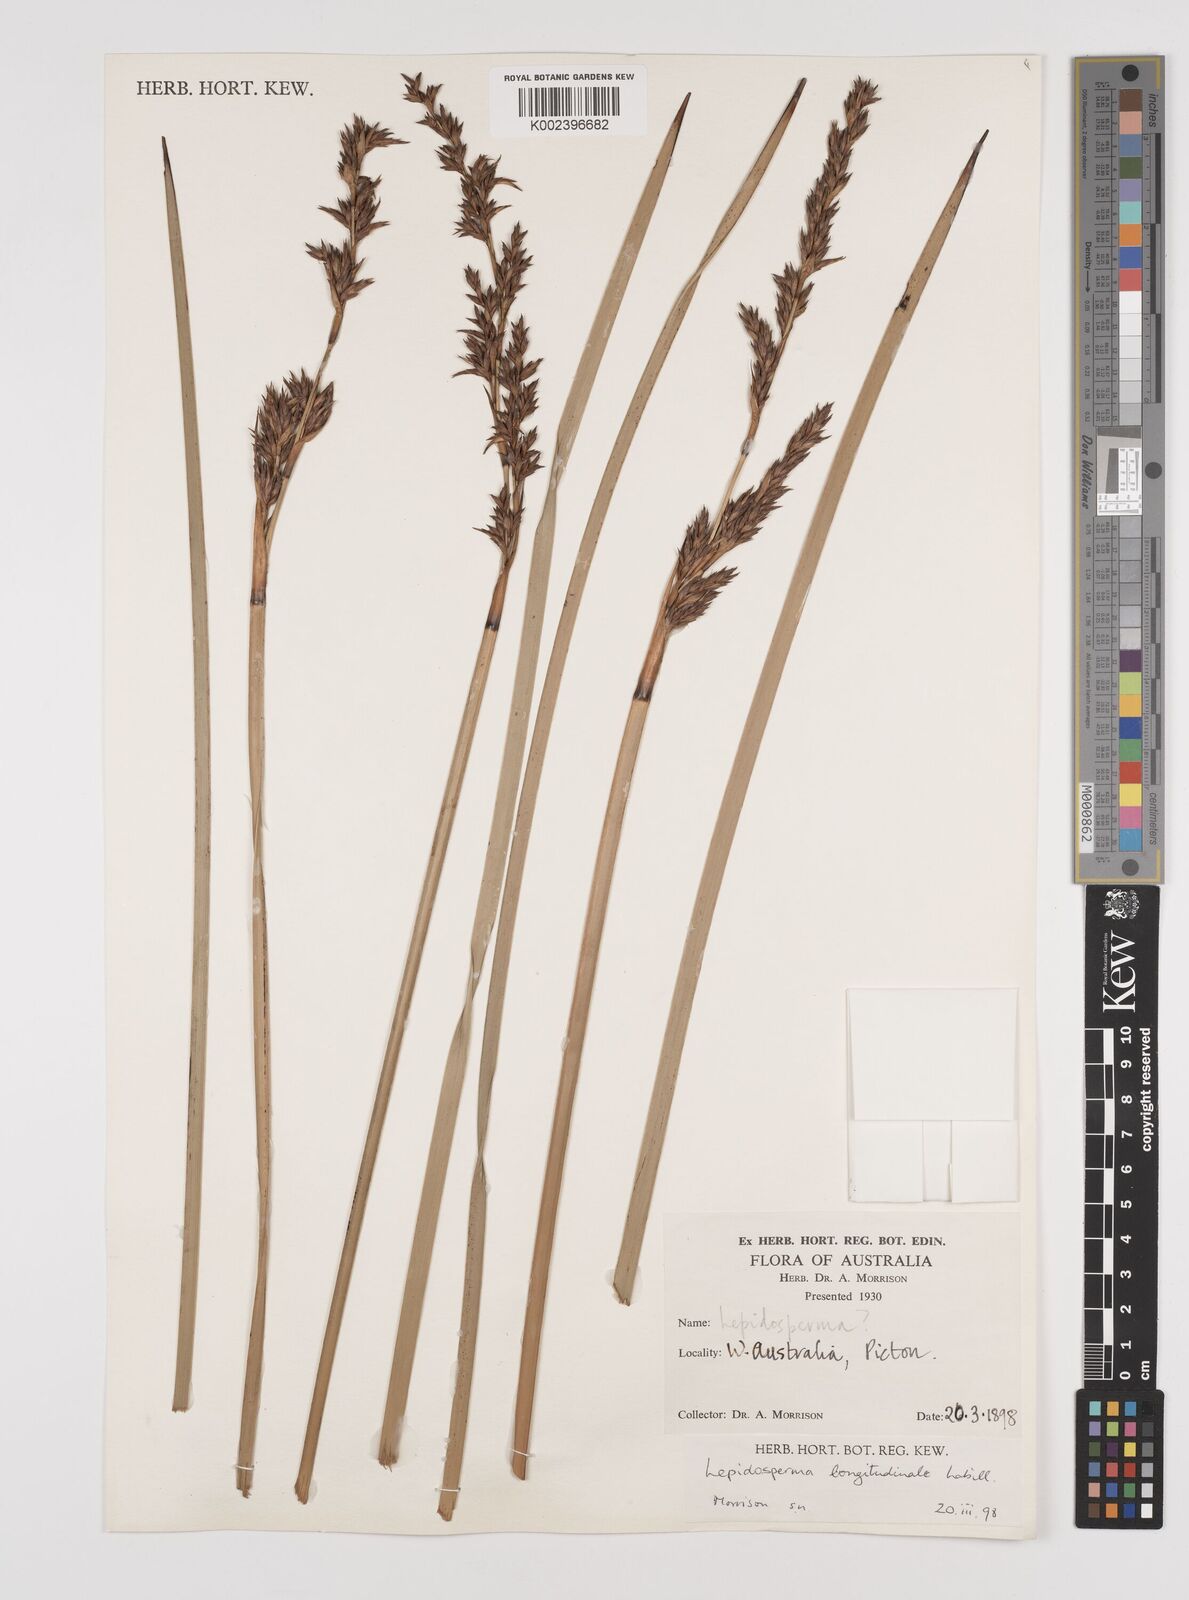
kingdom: Plantae
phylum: Tracheophyta
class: Liliopsida
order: Poales
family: Cyperaceae
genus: Lepidosperma
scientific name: Lepidosperma longitudinale
